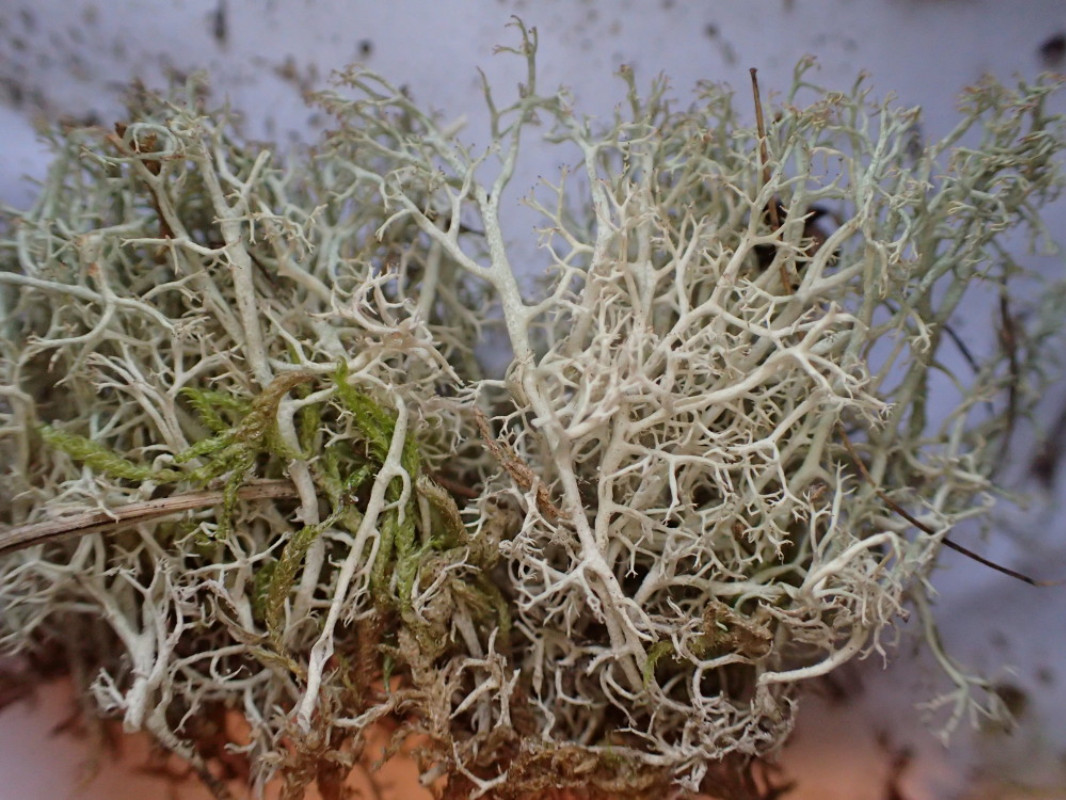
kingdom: Fungi
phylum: Ascomycota
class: Lecanoromycetes
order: Lecanorales
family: Cladoniaceae
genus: Cladonia
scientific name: Cladonia ciliata
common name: spinkel rensdyrlav
